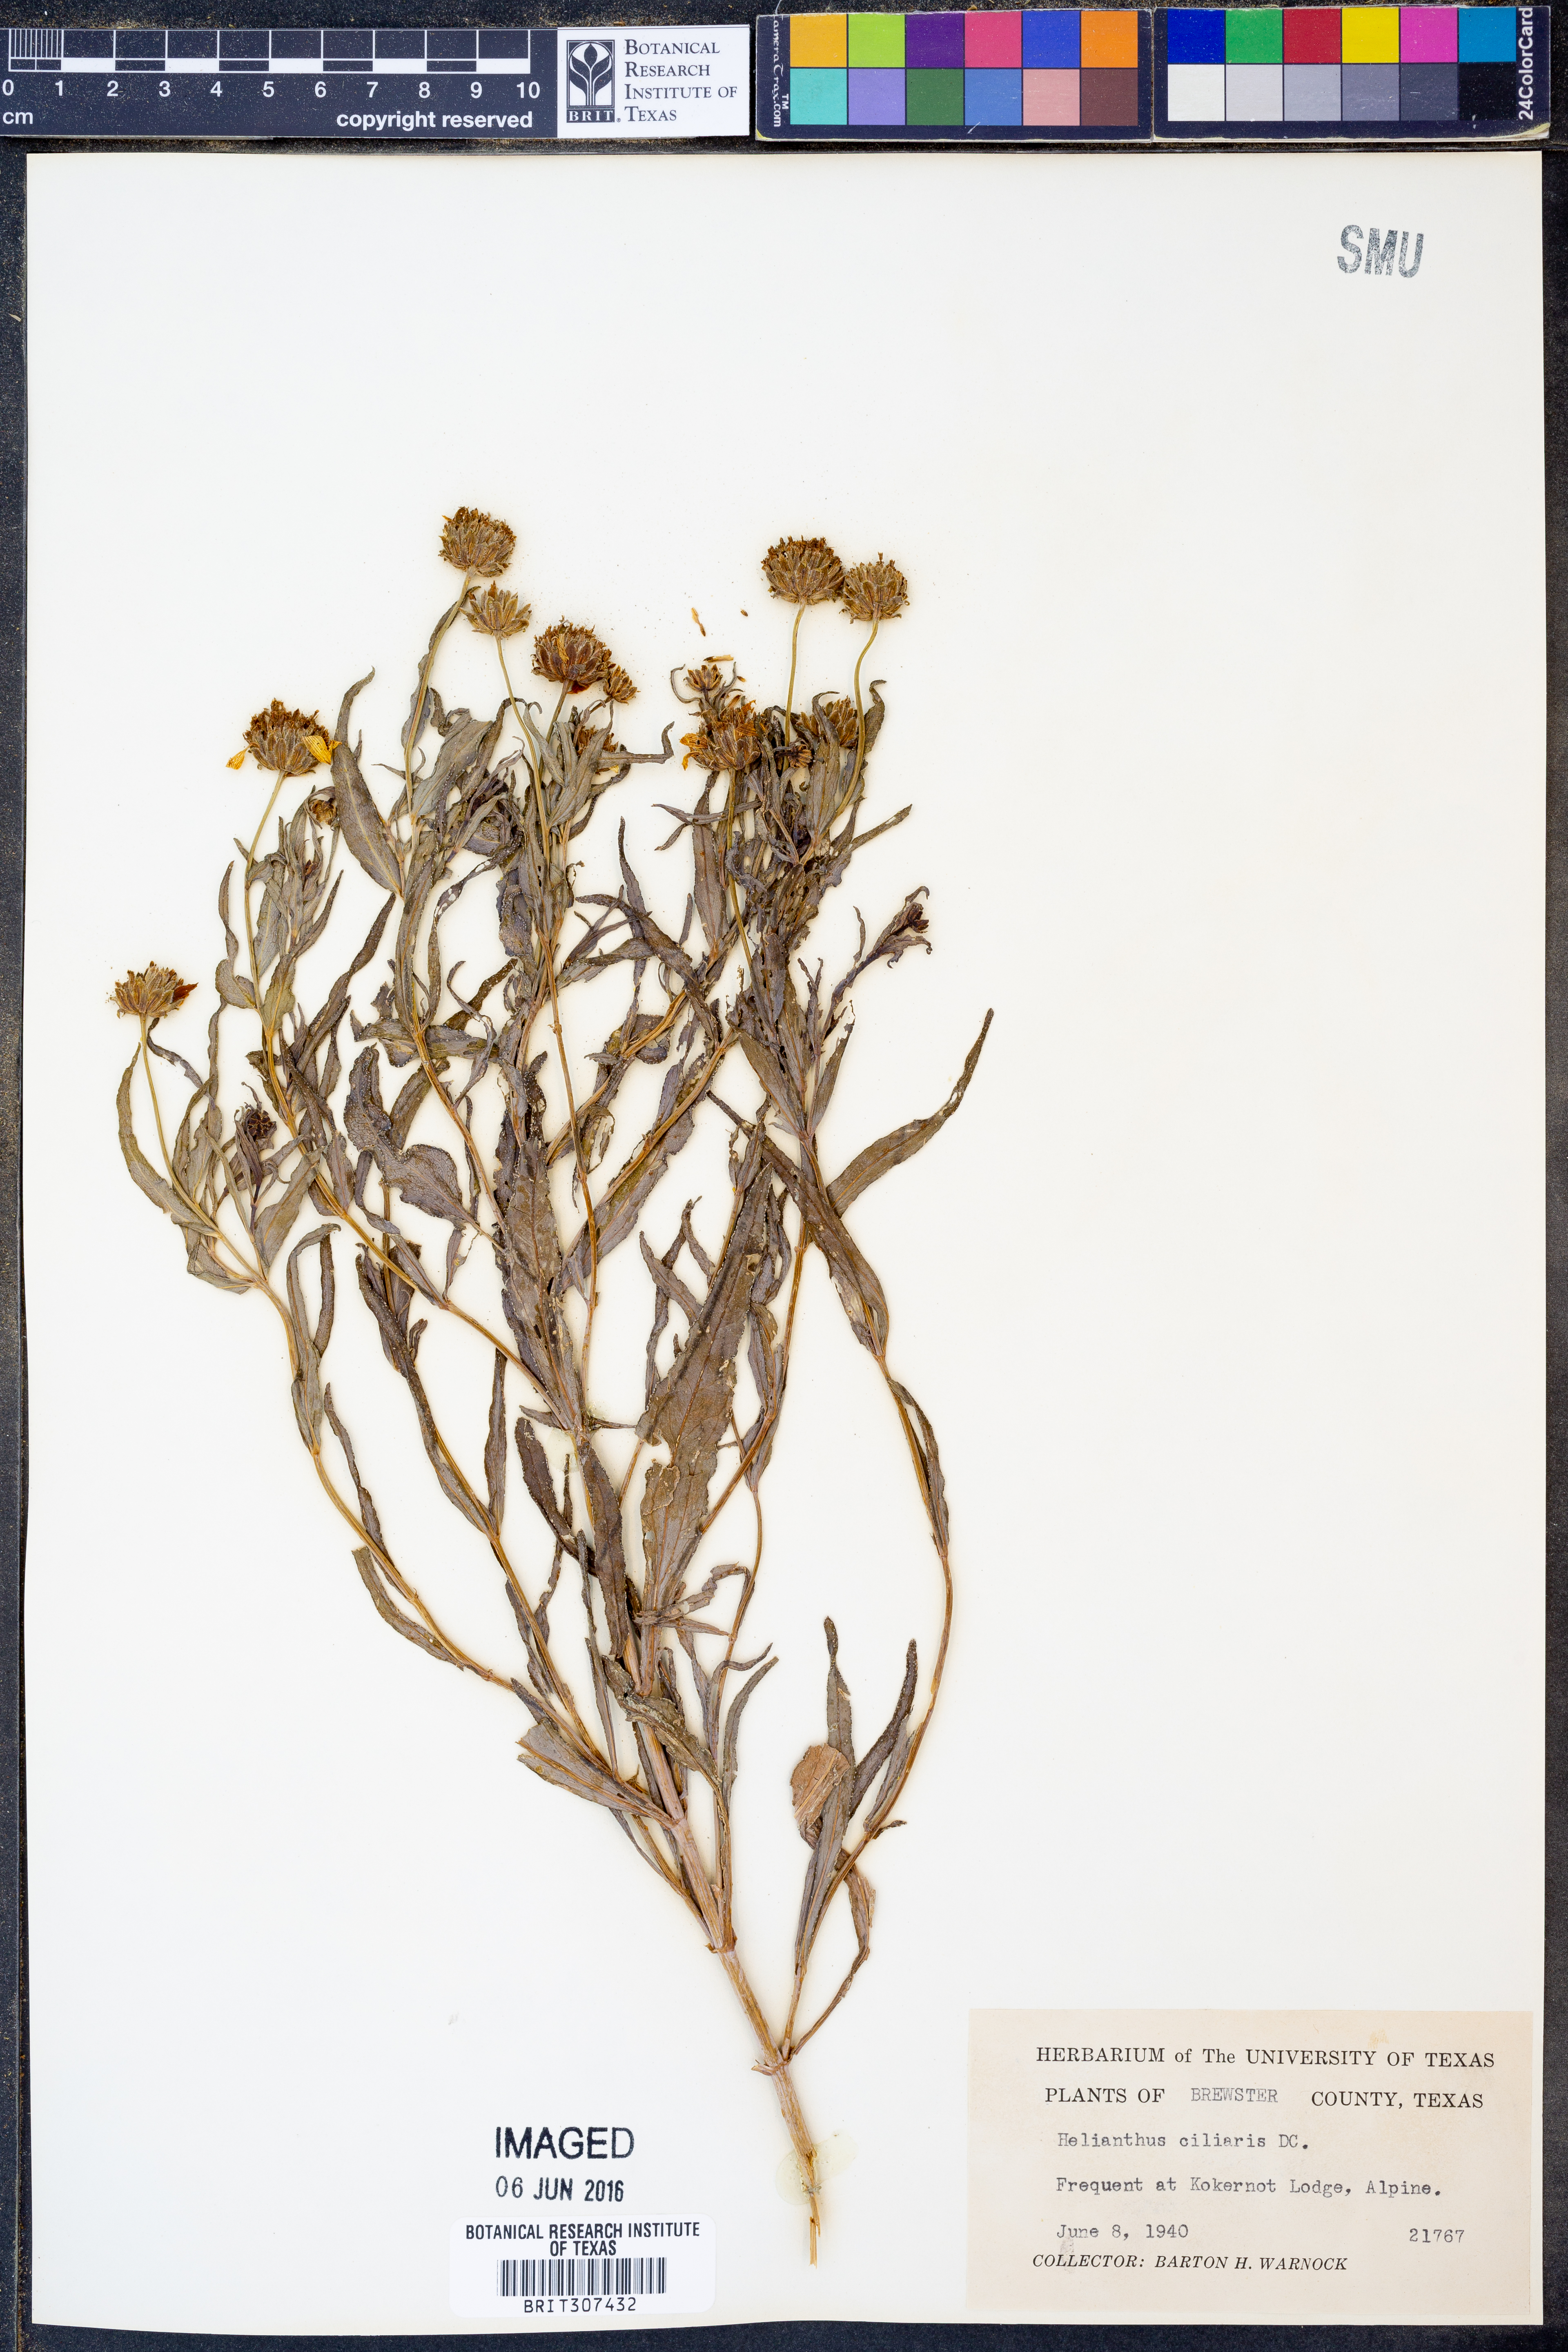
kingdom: Plantae
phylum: Tracheophyta
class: Magnoliopsida
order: Asterales
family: Asteraceae
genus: Helianthus
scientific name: Helianthus ciliaris
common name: Texas blueweed
